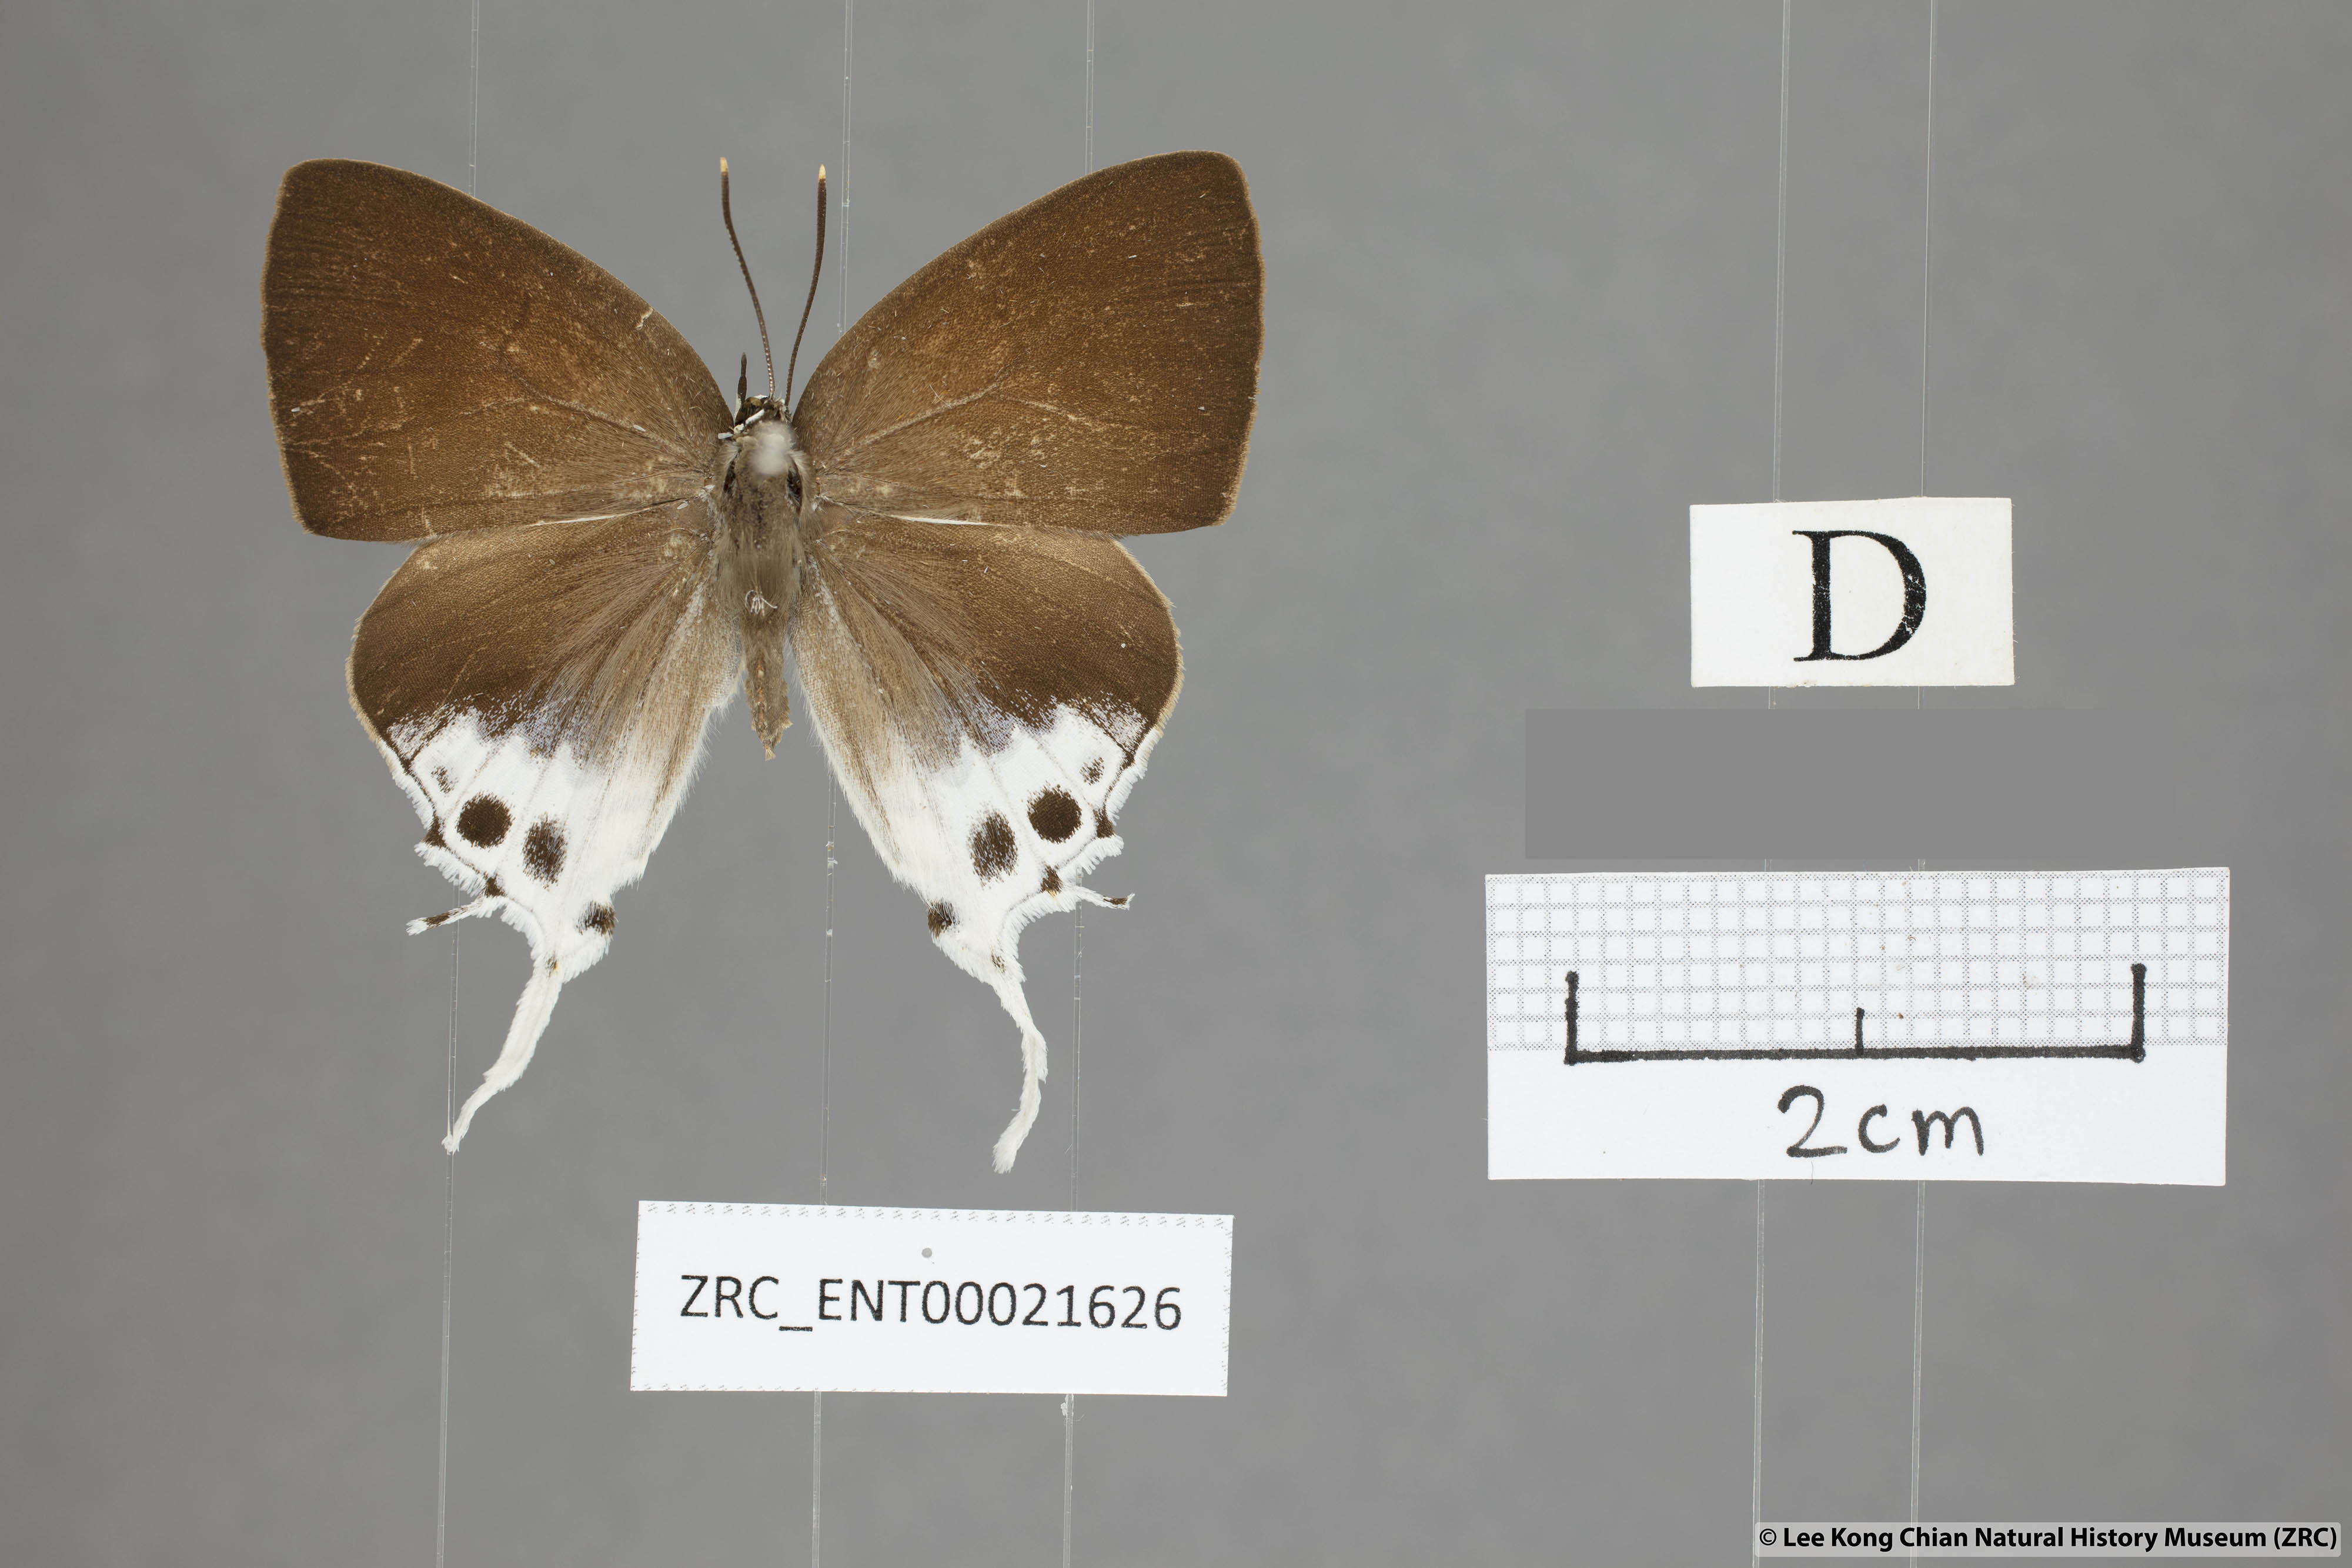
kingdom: Animalia
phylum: Arthropoda
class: Insecta
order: Lepidoptera
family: Lycaenidae
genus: Mantoides
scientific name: Mantoides gama
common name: Distant's imperial
